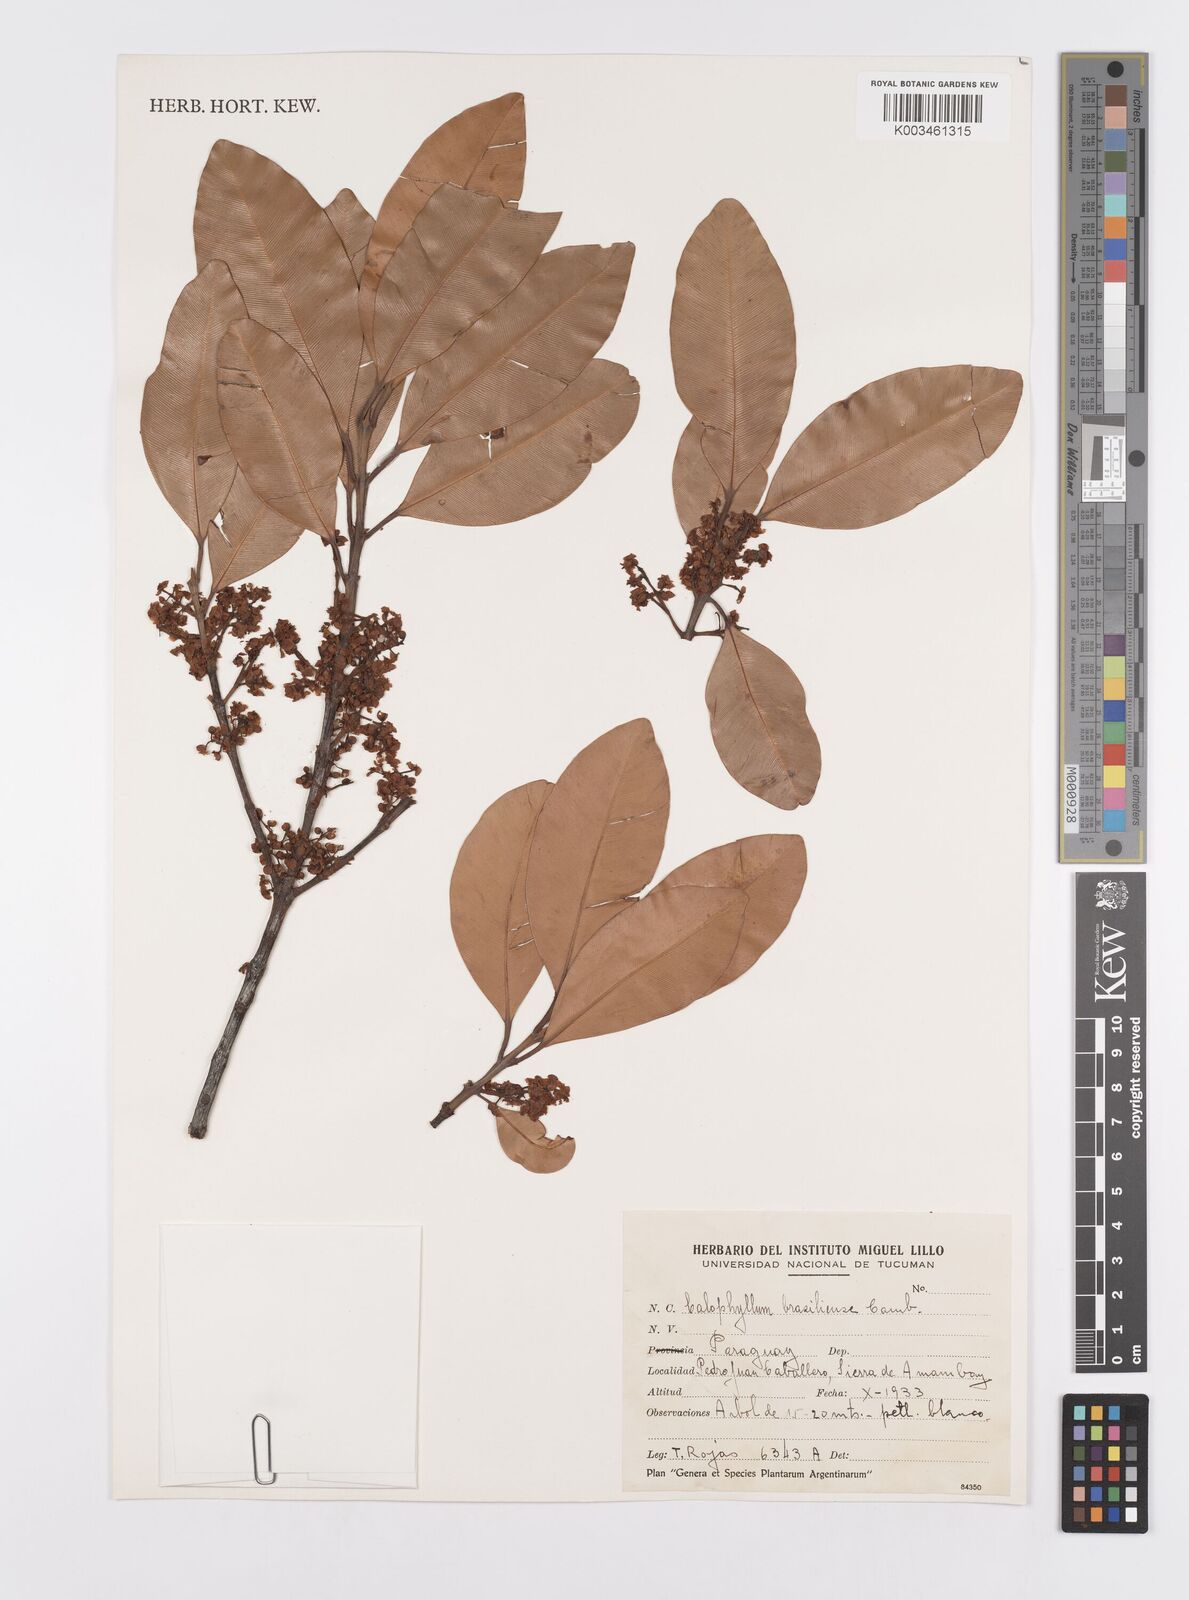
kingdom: Plantae
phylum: Tracheophyta
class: Magnoliopsida
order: Malpighiales
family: Calophyllaceae
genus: Calophyllum
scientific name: Calophyllum brasiliense
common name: Santa maria
